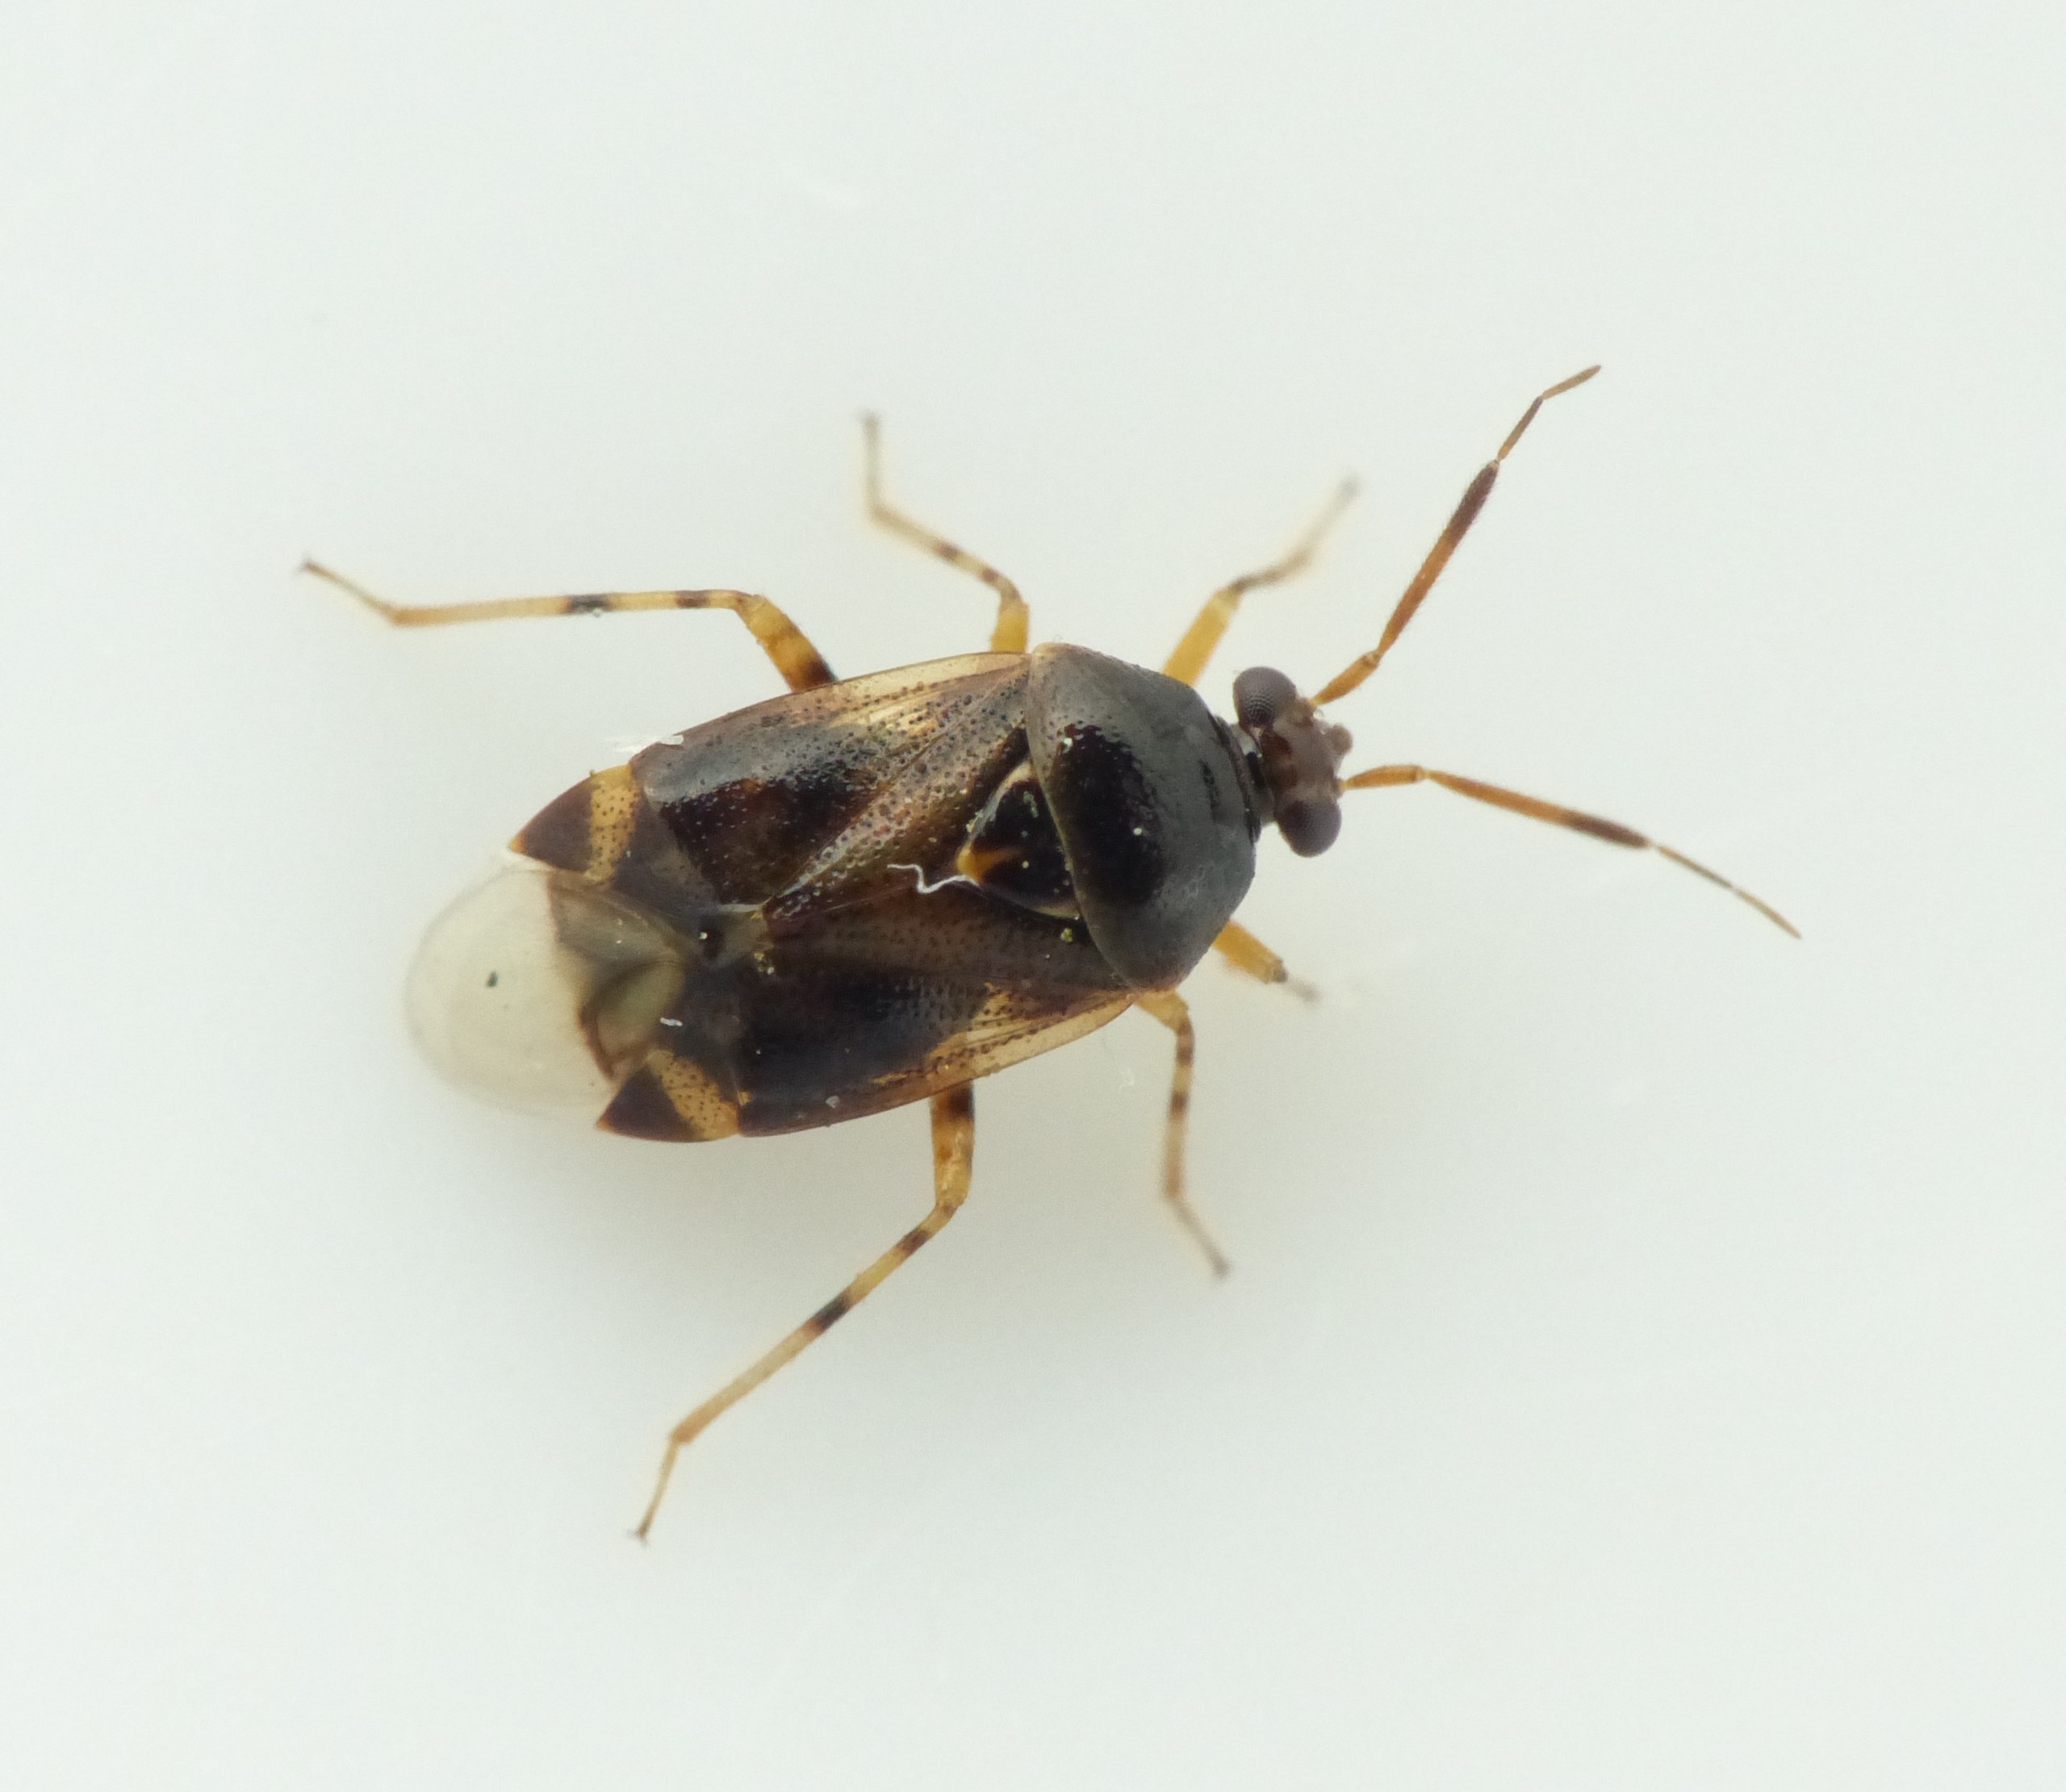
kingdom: Animalia
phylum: Arthropoda
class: Insecta
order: Hemiptera
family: Miridae
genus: Deraeocoris
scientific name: Deraeocoris lutescens
